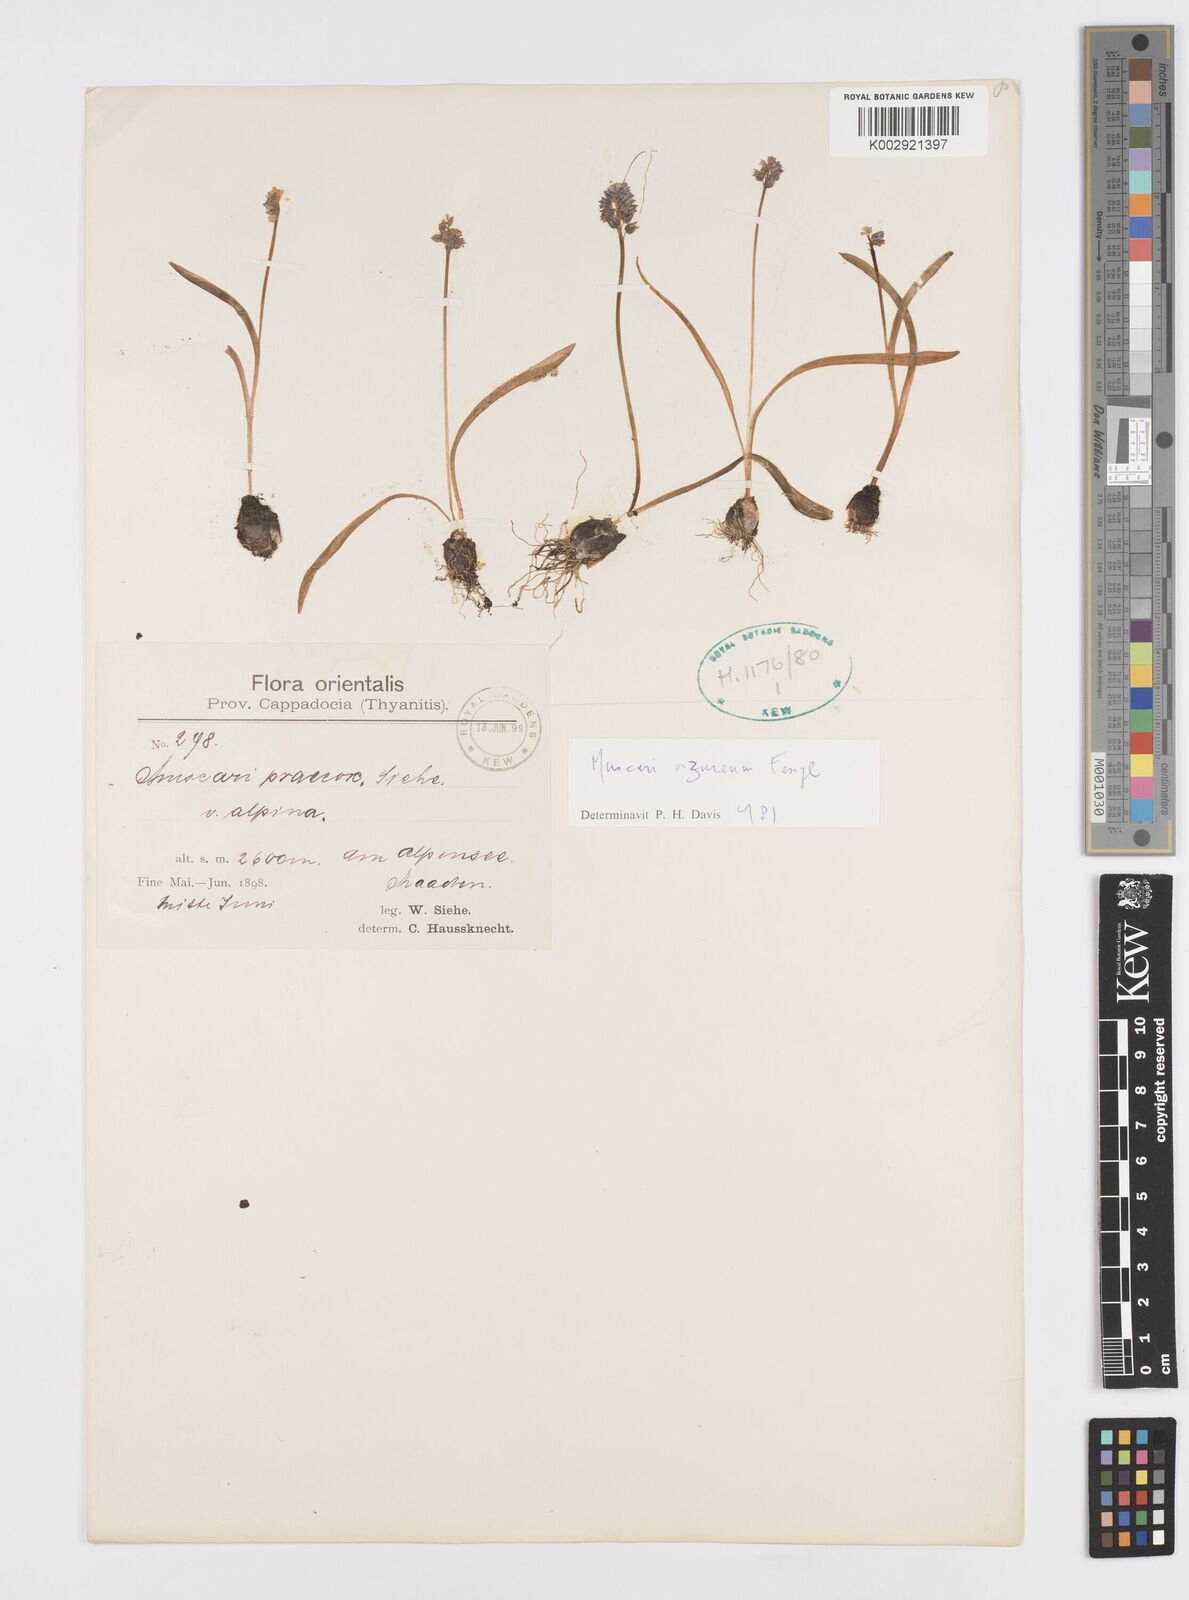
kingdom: Plantae
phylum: Tracheophyta
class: Liliopsida
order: Asparagales
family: Asparagaceae
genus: Muscari
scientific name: Muscari
